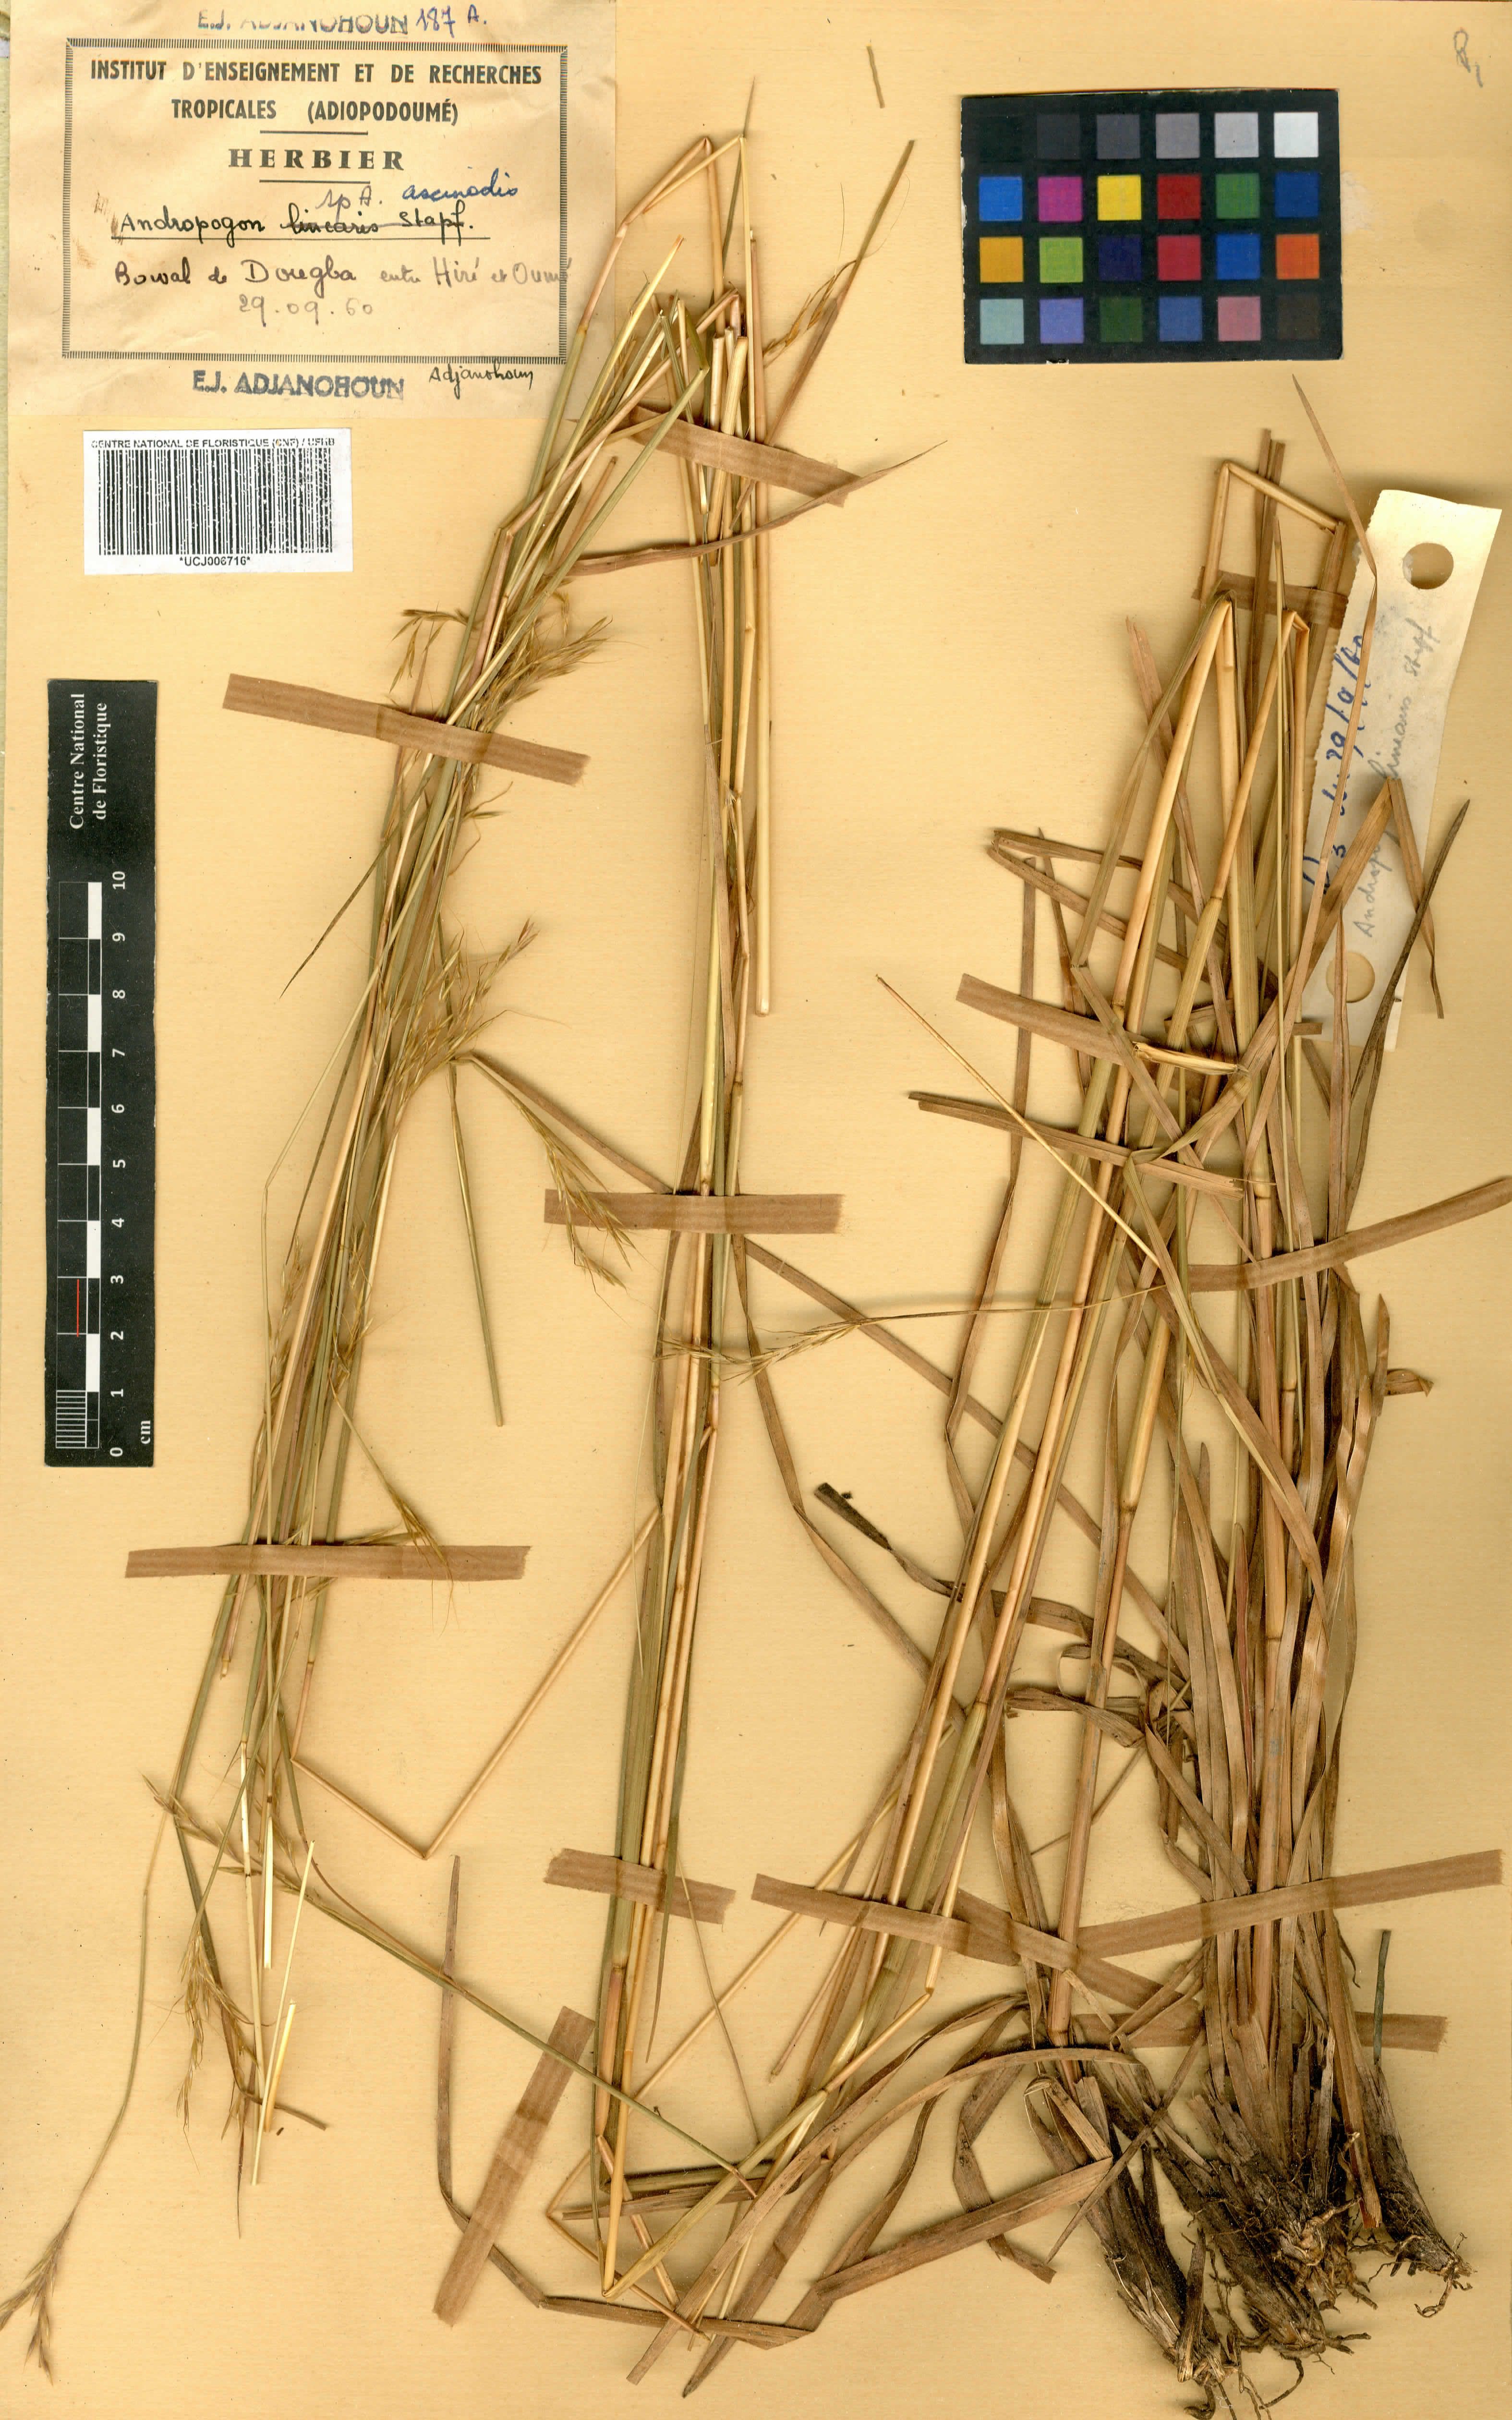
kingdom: Plantae
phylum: Tracheophyta
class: Liliopsida
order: Poales
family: Poaceae
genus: Andropogon
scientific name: Andropogon pseudapricus
